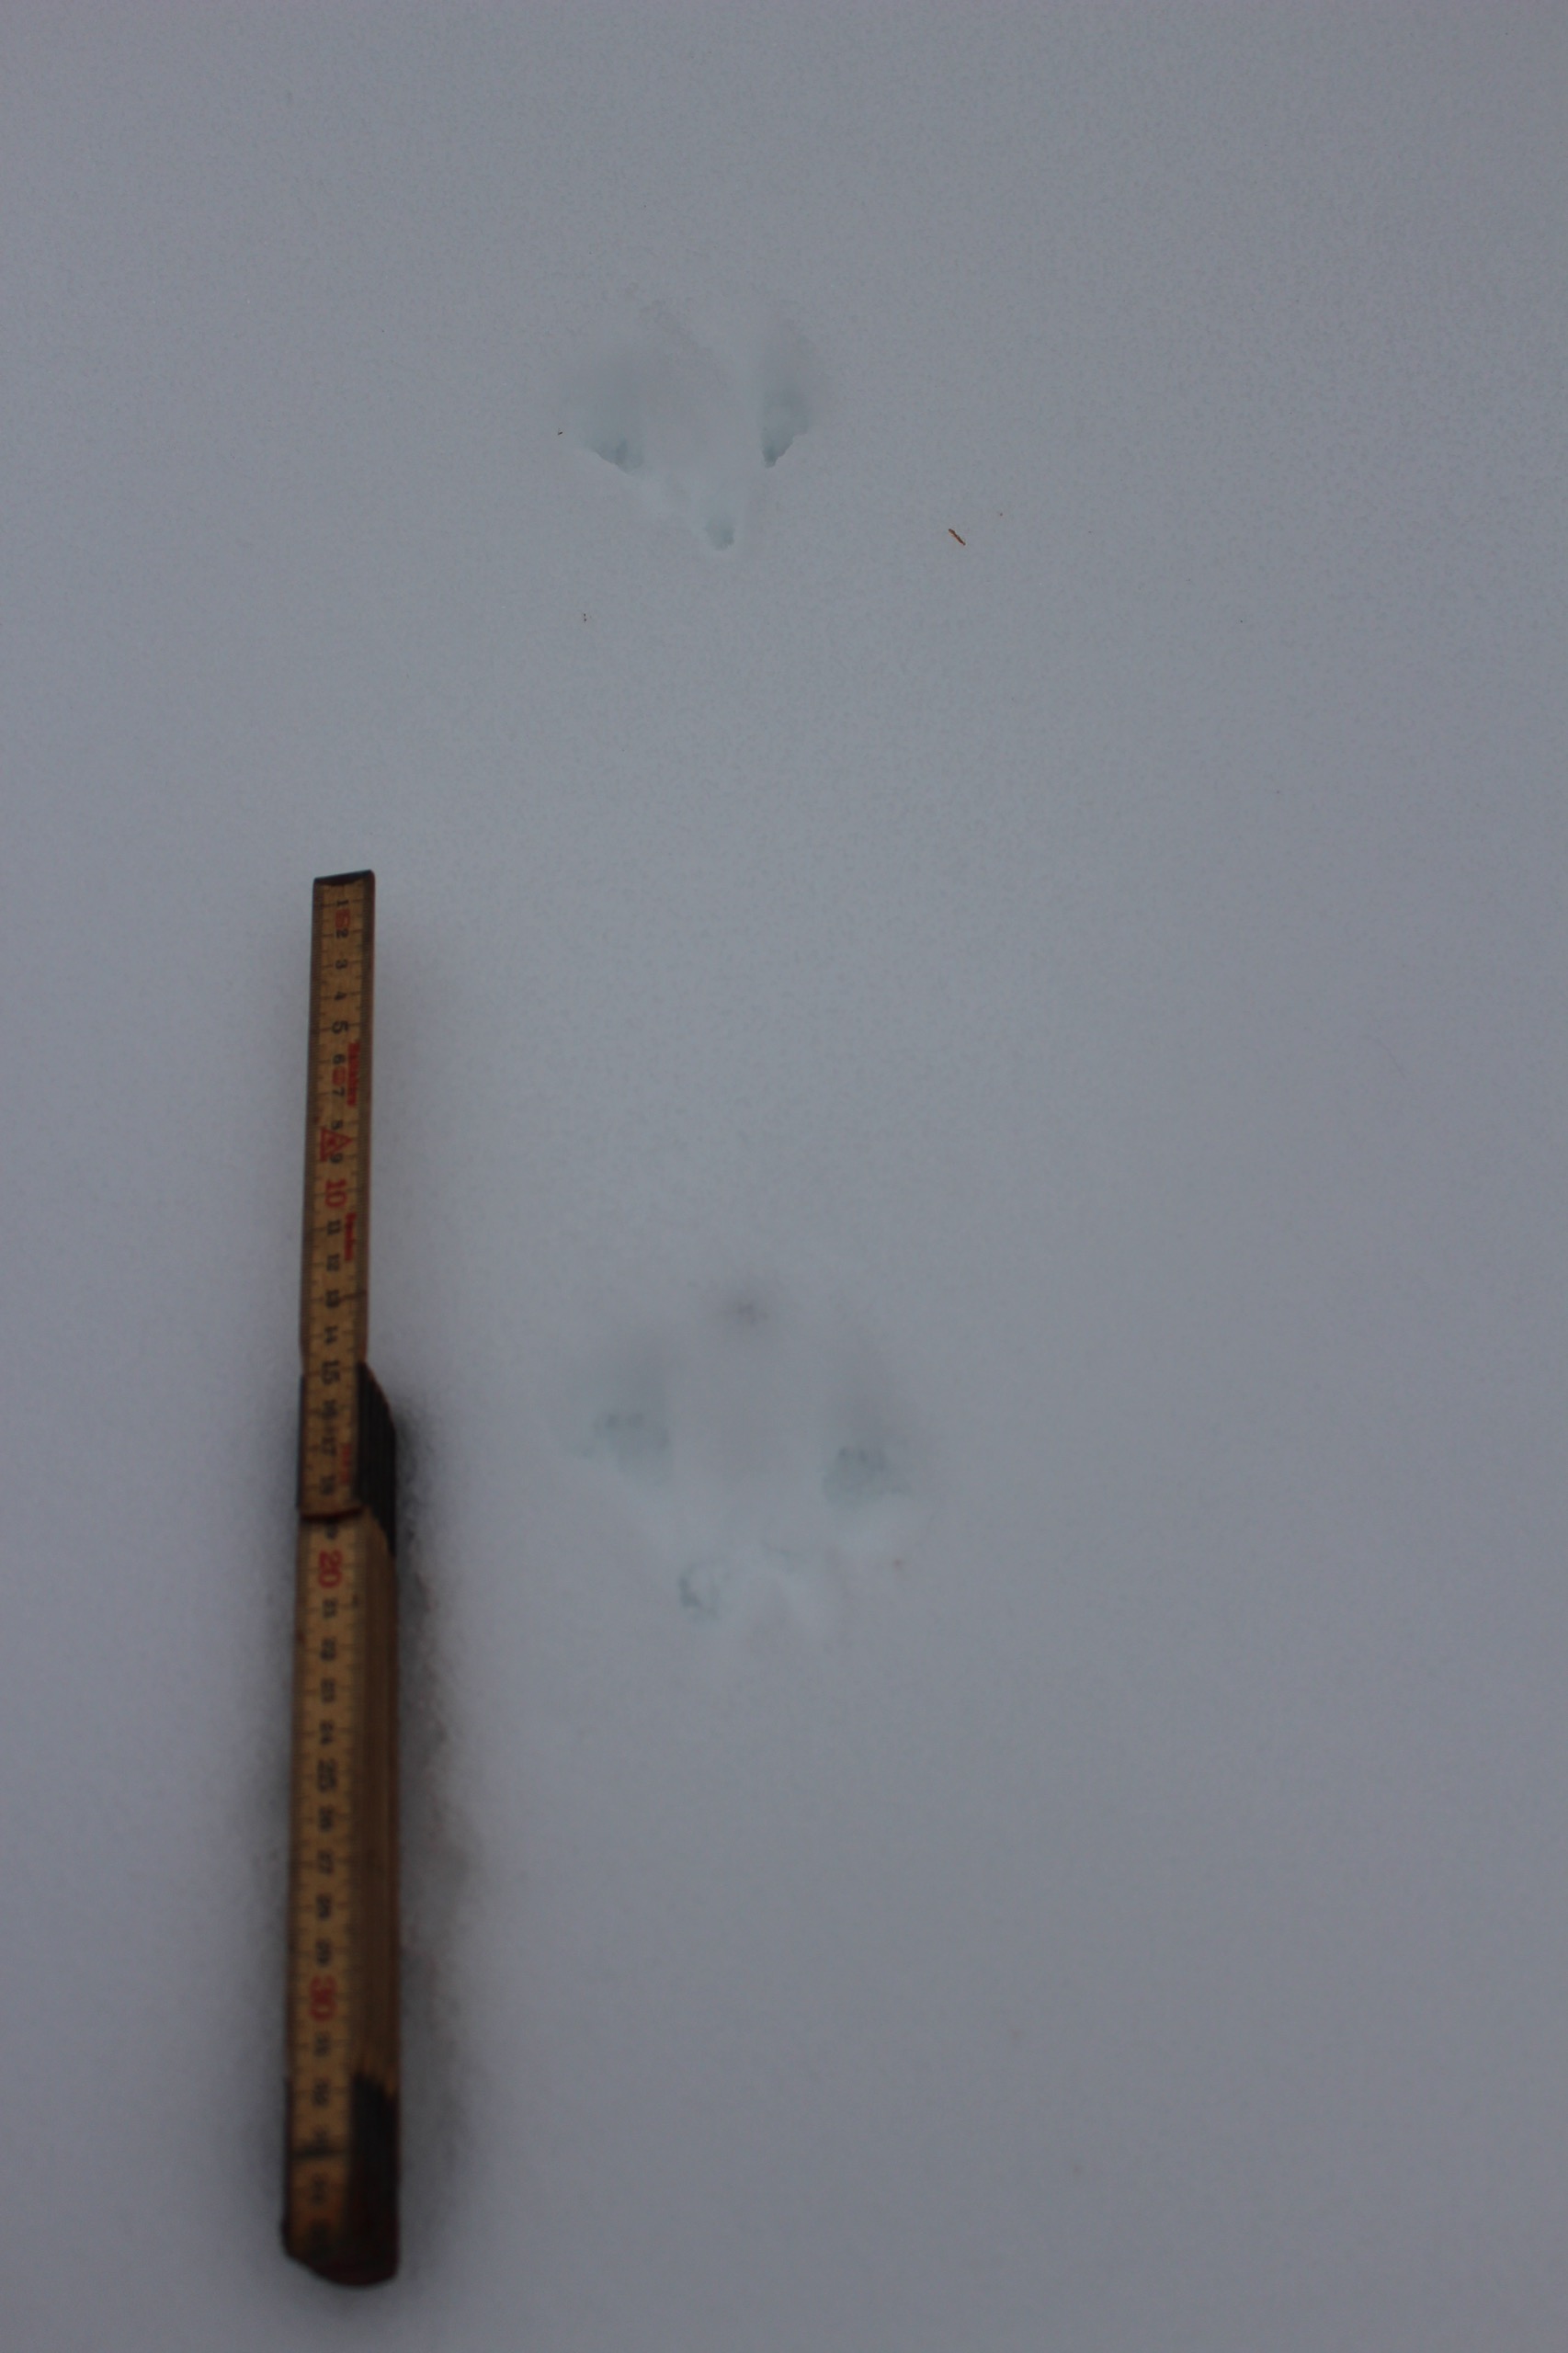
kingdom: Animalia
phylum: Chordata
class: Mammalia
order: Rodentia
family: Sciuridae
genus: Sciurus
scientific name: Sciurus vulgaris
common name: Egern
